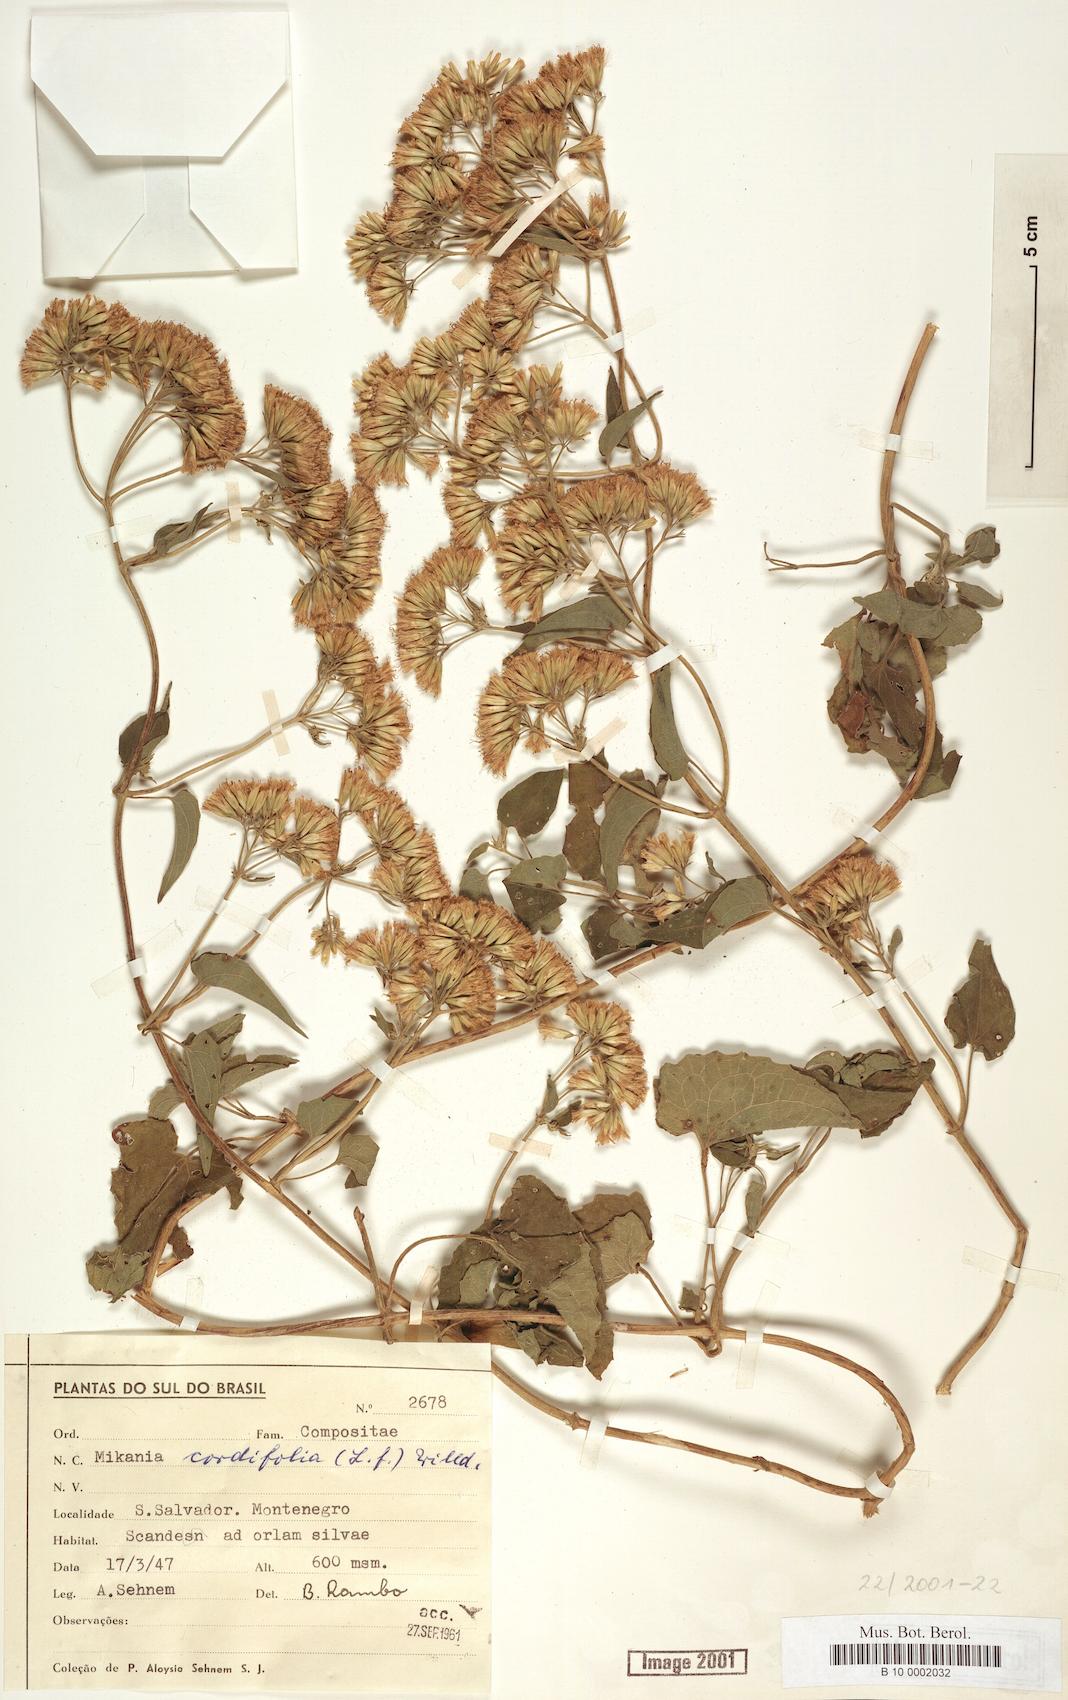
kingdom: Plantae
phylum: Tracheophyta
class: Magnoliopsida
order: Asterales
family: Asteraceae
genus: Mikania
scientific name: Mikania cordifolia
